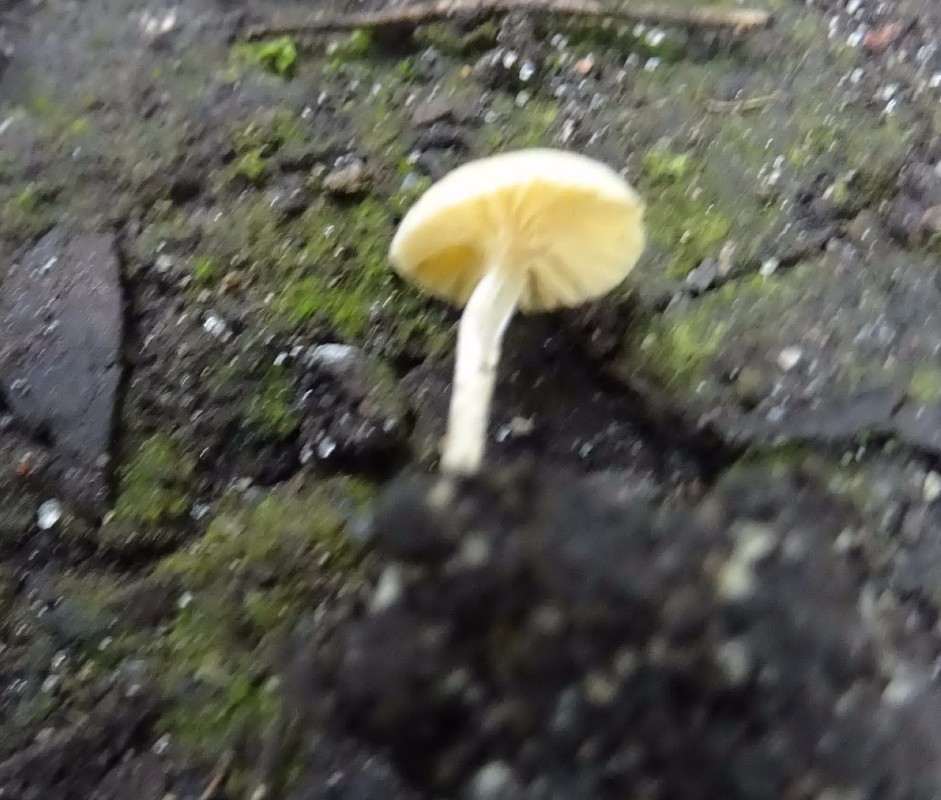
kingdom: Fungi
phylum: Basidiomycota
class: Agaricomycetes
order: Agaricales
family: Tubariaceae
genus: Tubaria
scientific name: Tubaria dispersa
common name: tjørne-fnughat
